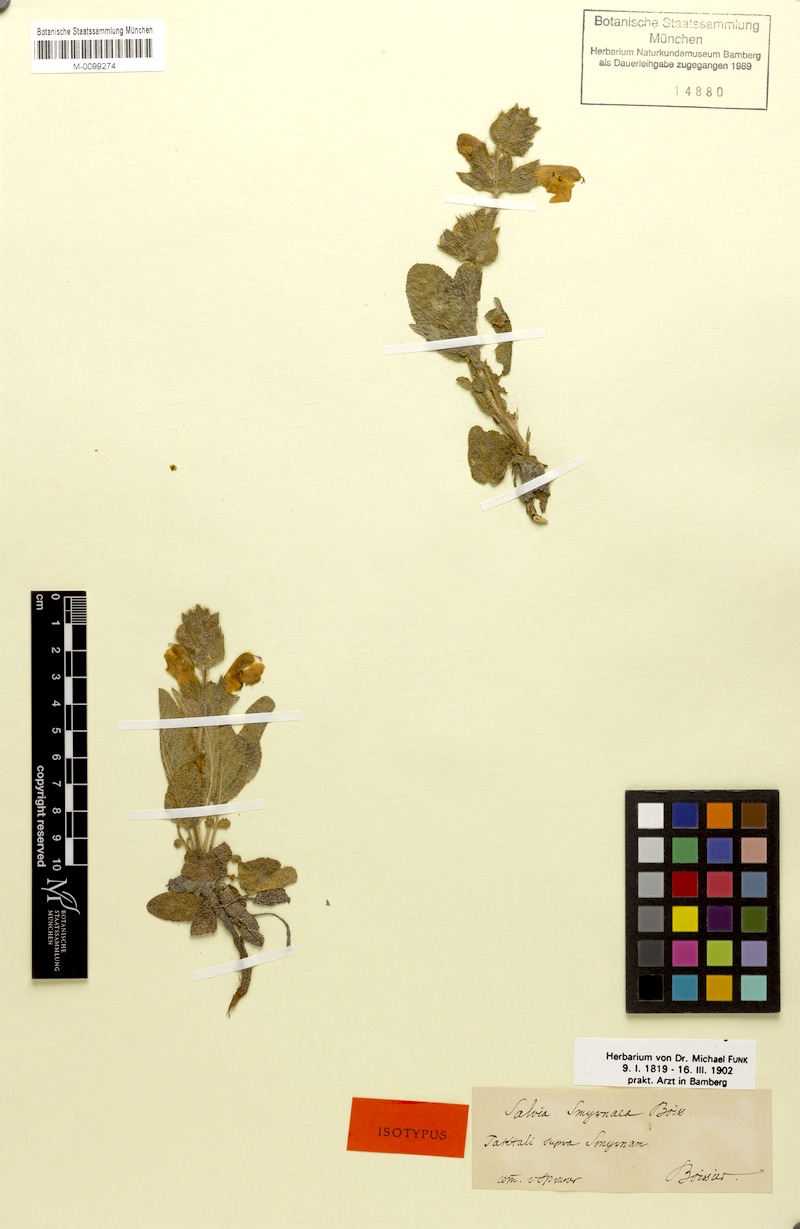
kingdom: Plantae
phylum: Tracheophyta
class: Magnoliopsida
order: Lamiales
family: Lamiaceae
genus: Salvia
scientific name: Salvia smyrnaea
